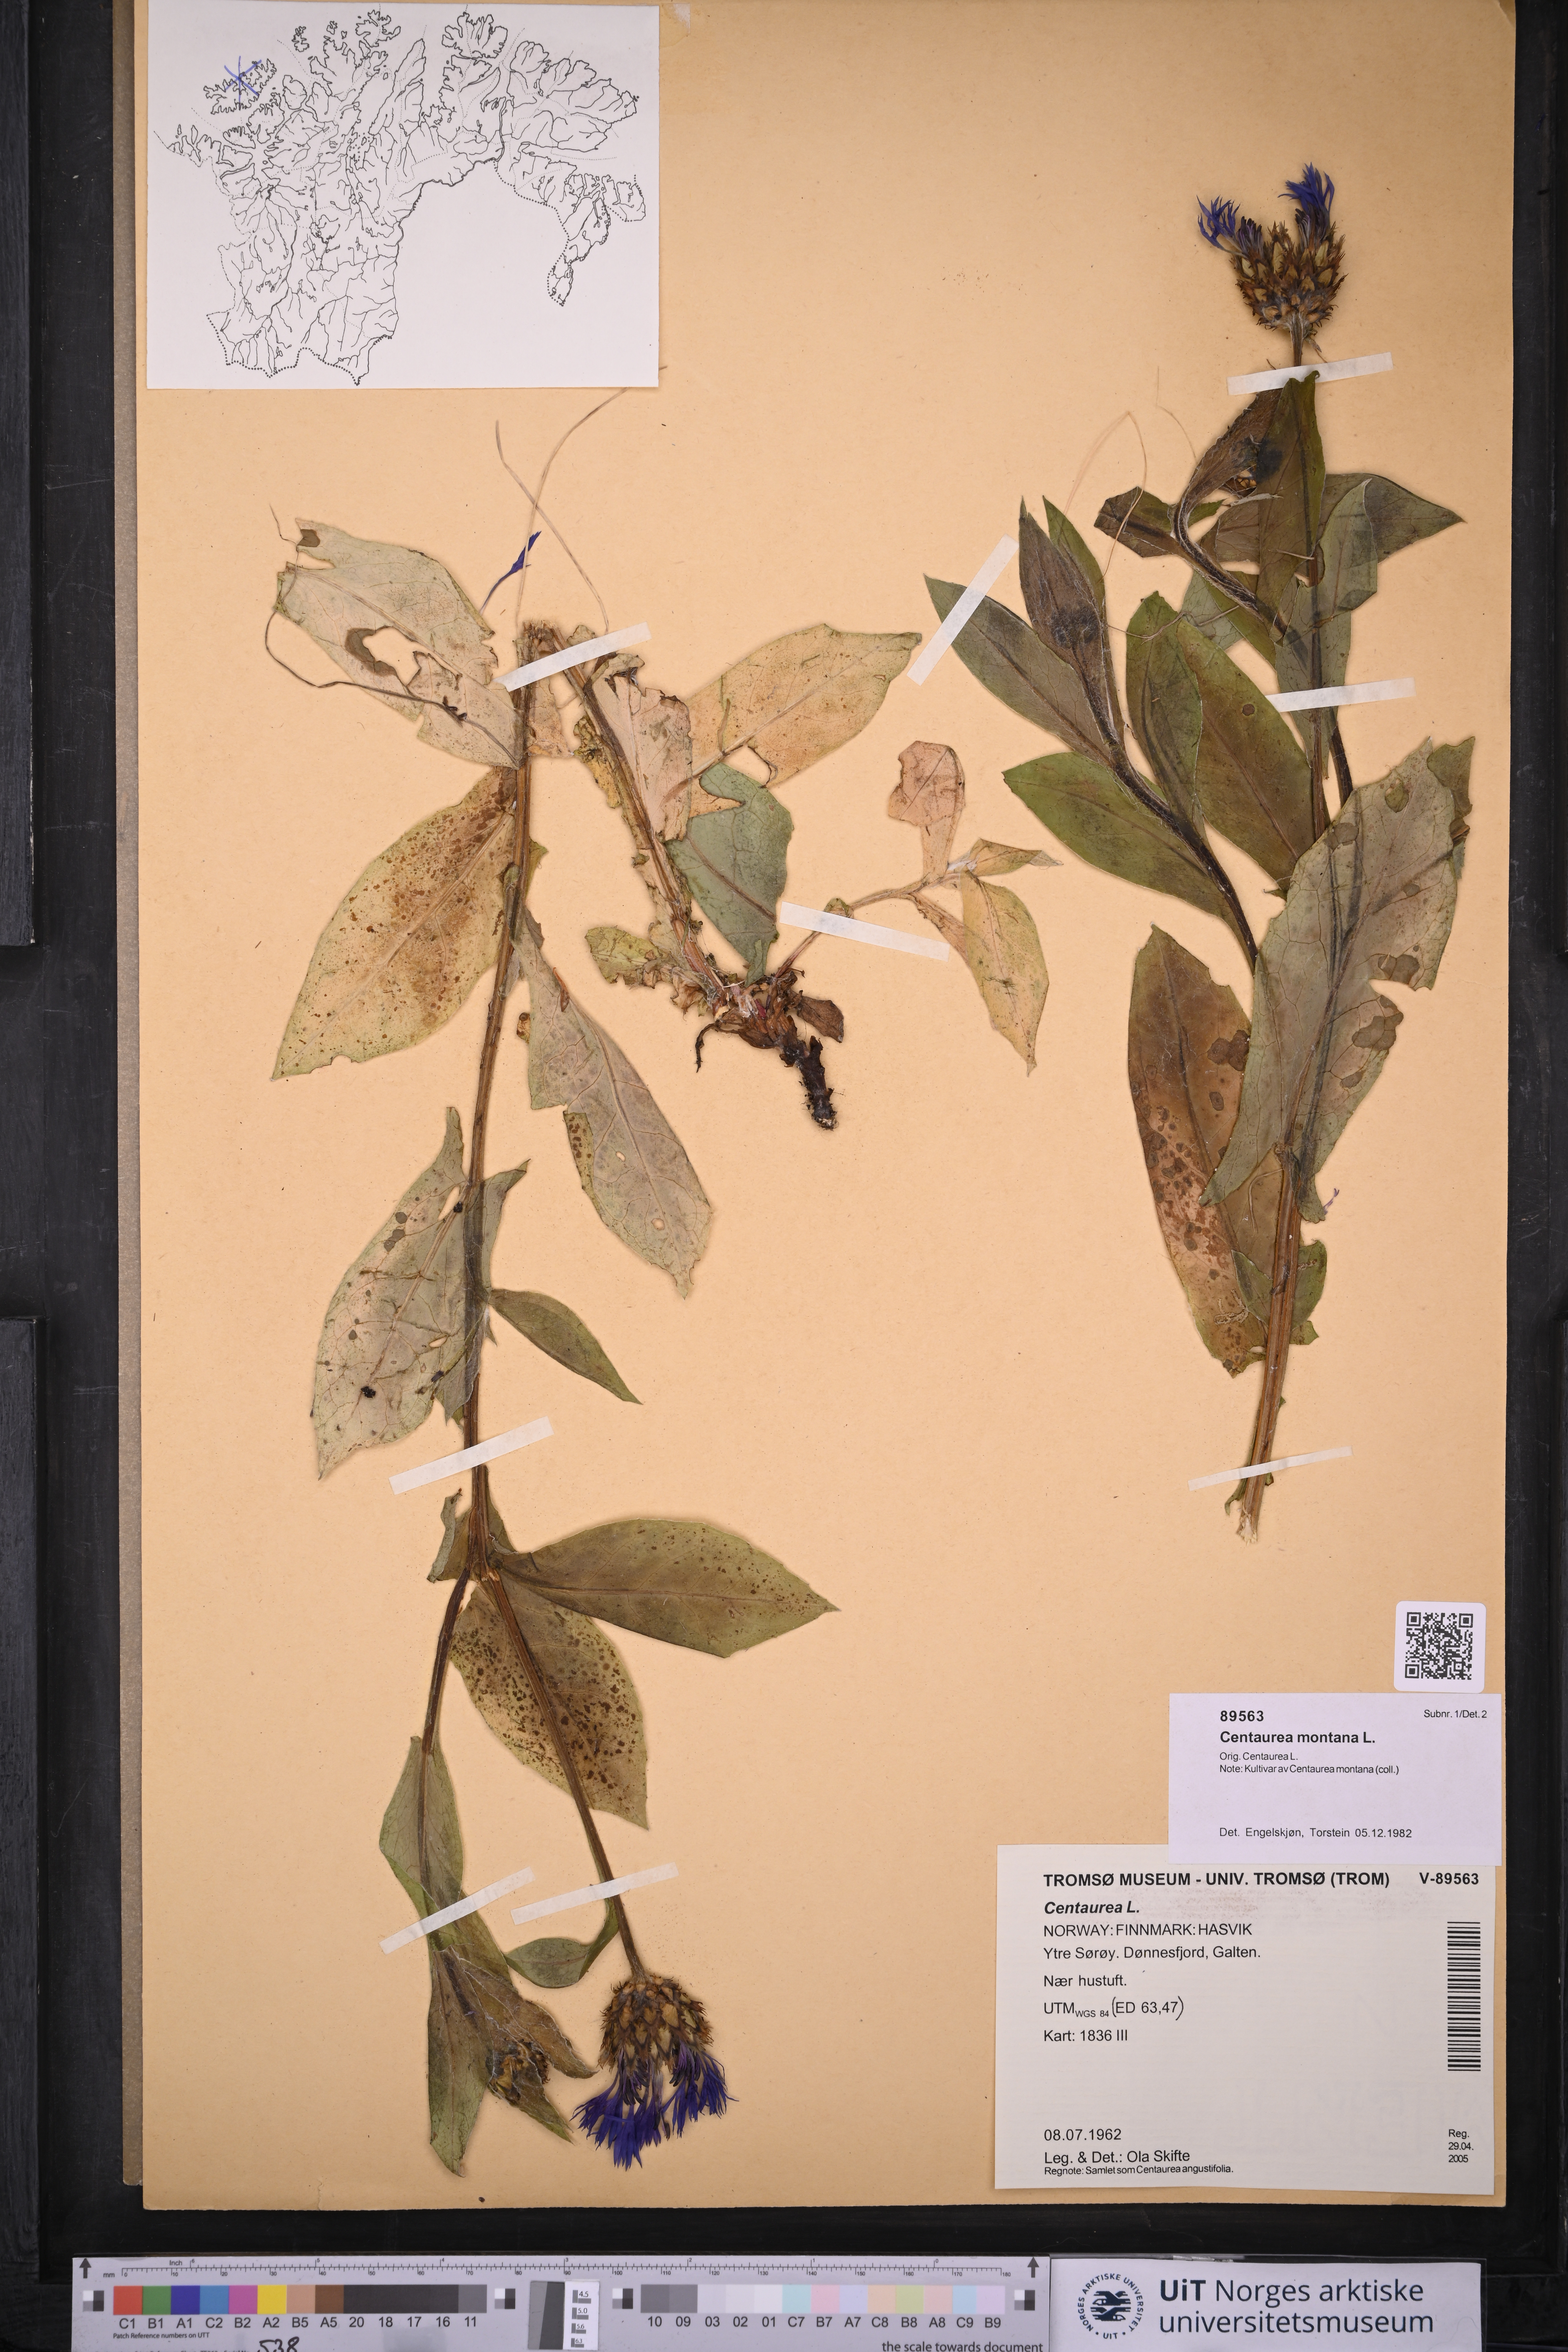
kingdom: Plantae
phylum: Tracheophyta
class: Magnoliopsida
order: Asterales
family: Asteraceae
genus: Centaurea
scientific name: Centaurea montana
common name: Perennial cornflower
